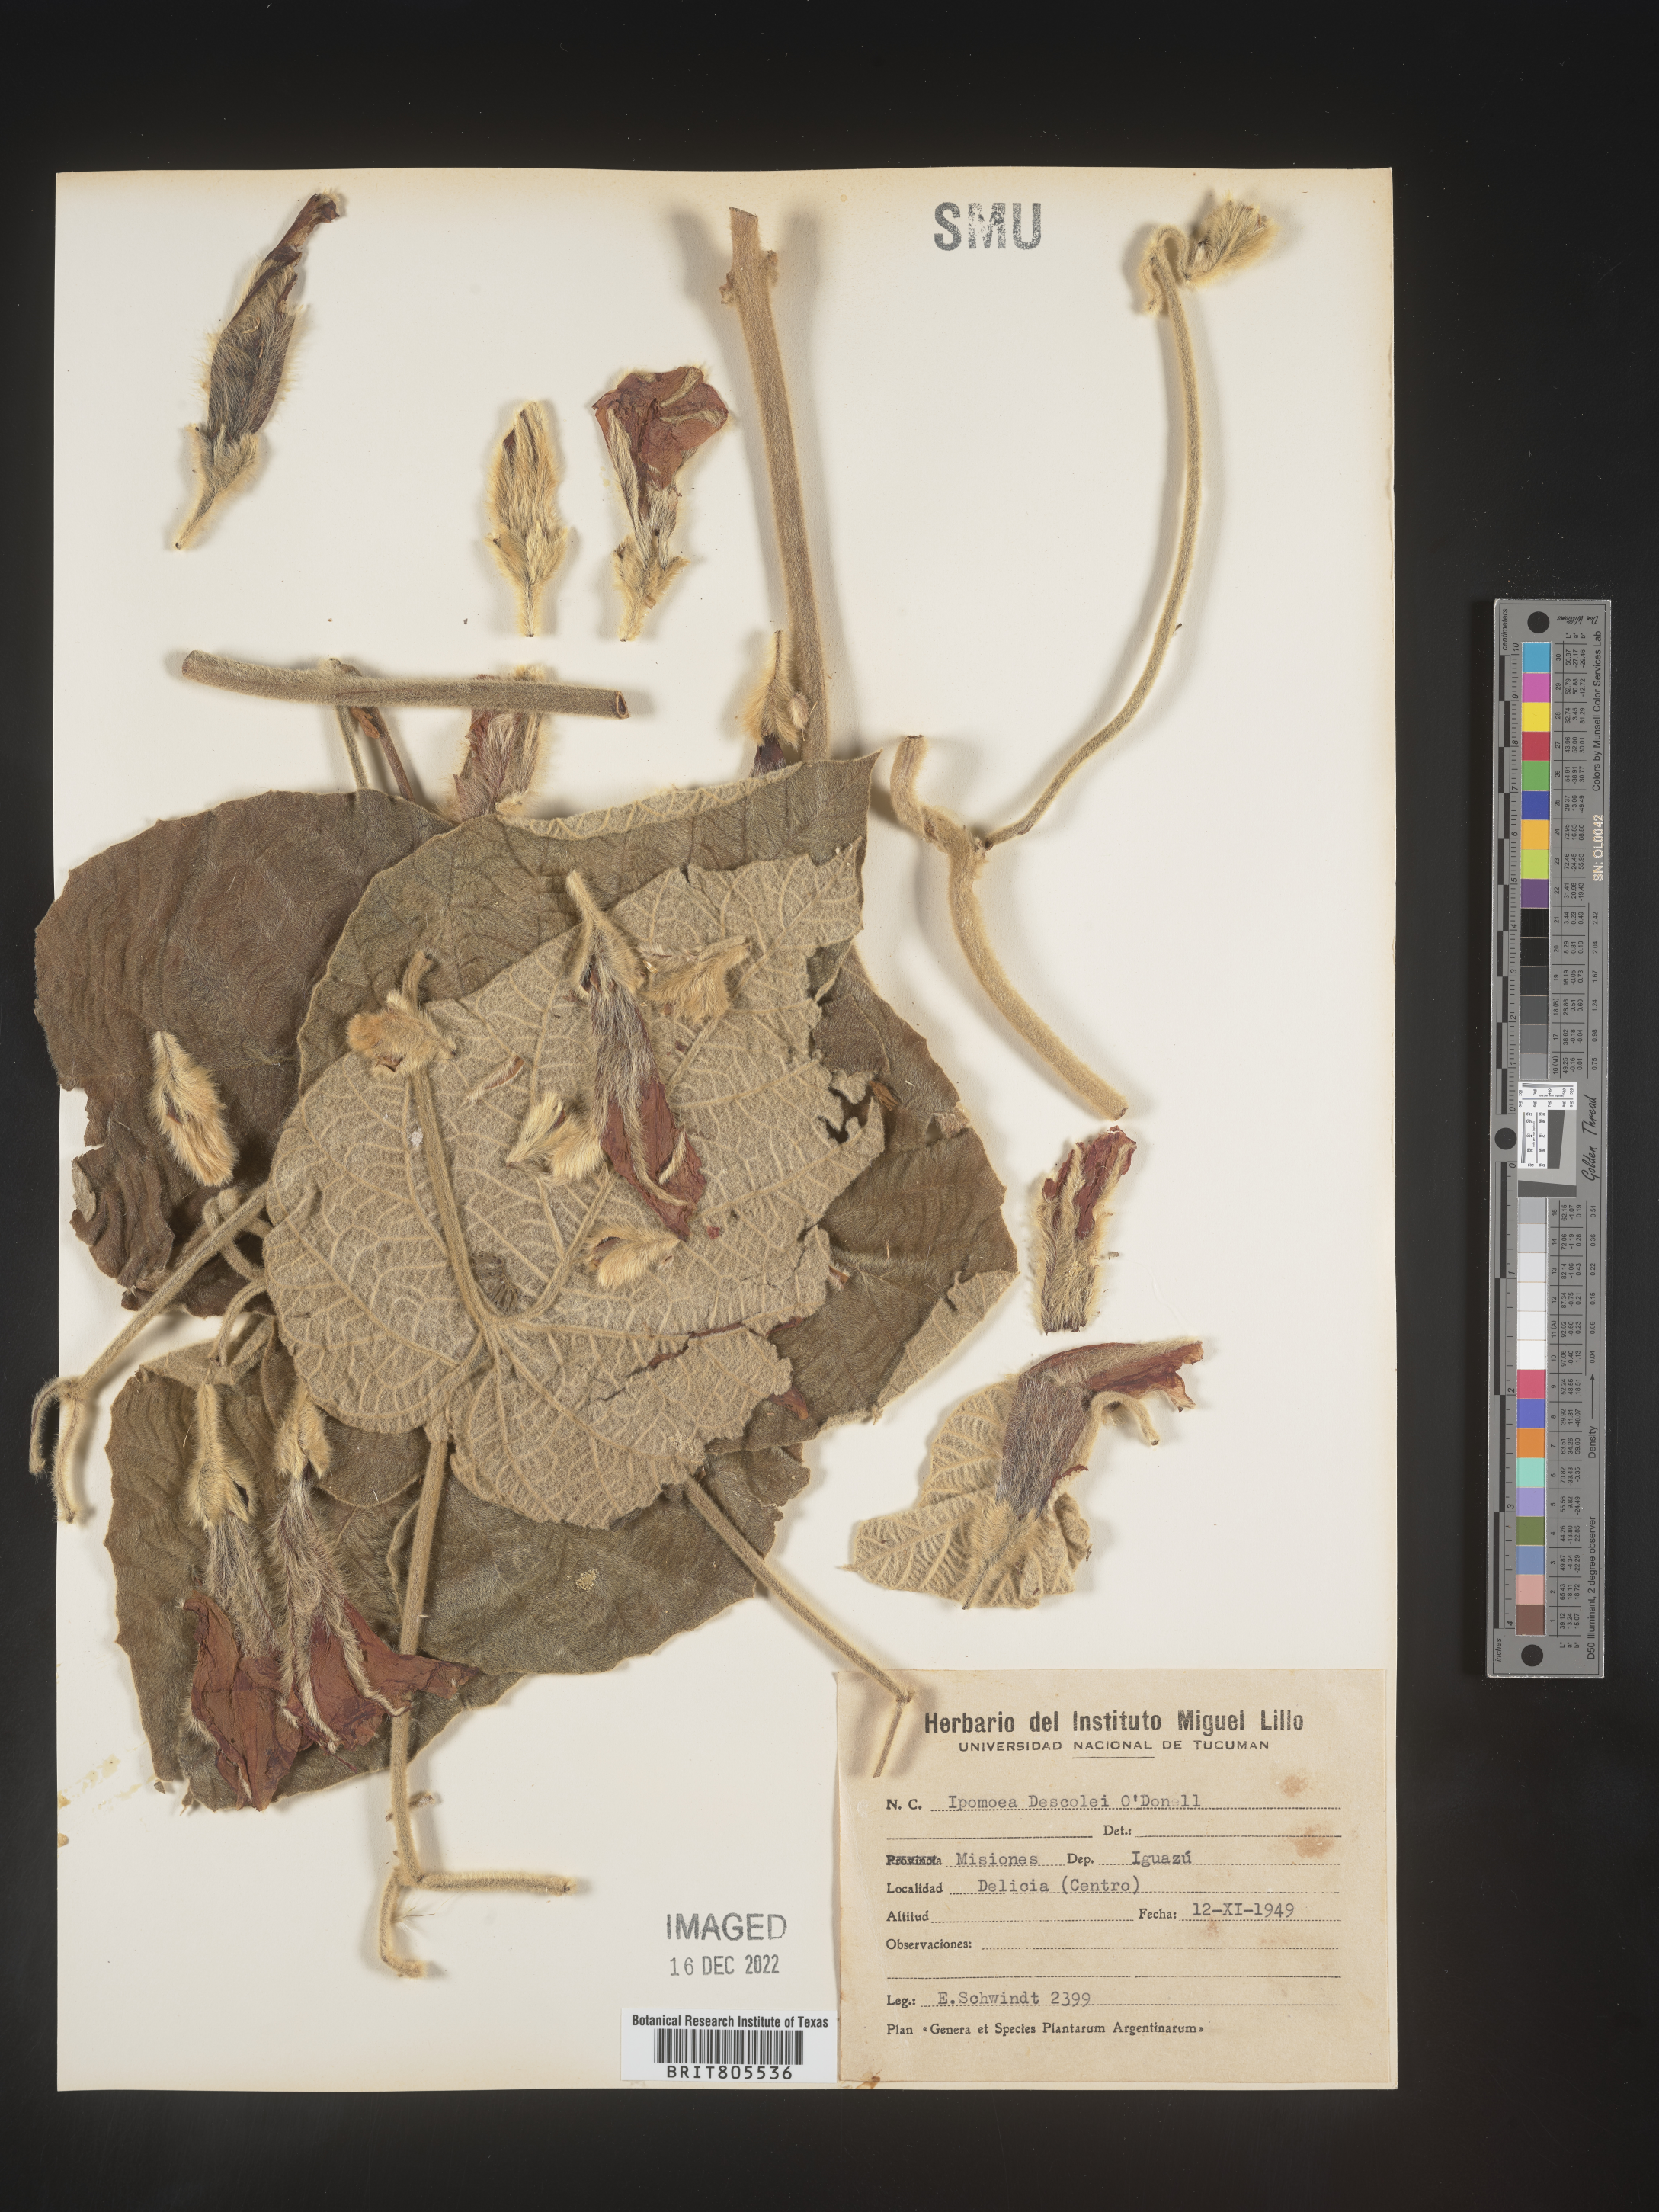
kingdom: Plantae
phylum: Tracheophyta
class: Magnoliopsida
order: Solanales
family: Convolvulaceae
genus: Ipomoea
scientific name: Ipomoea
